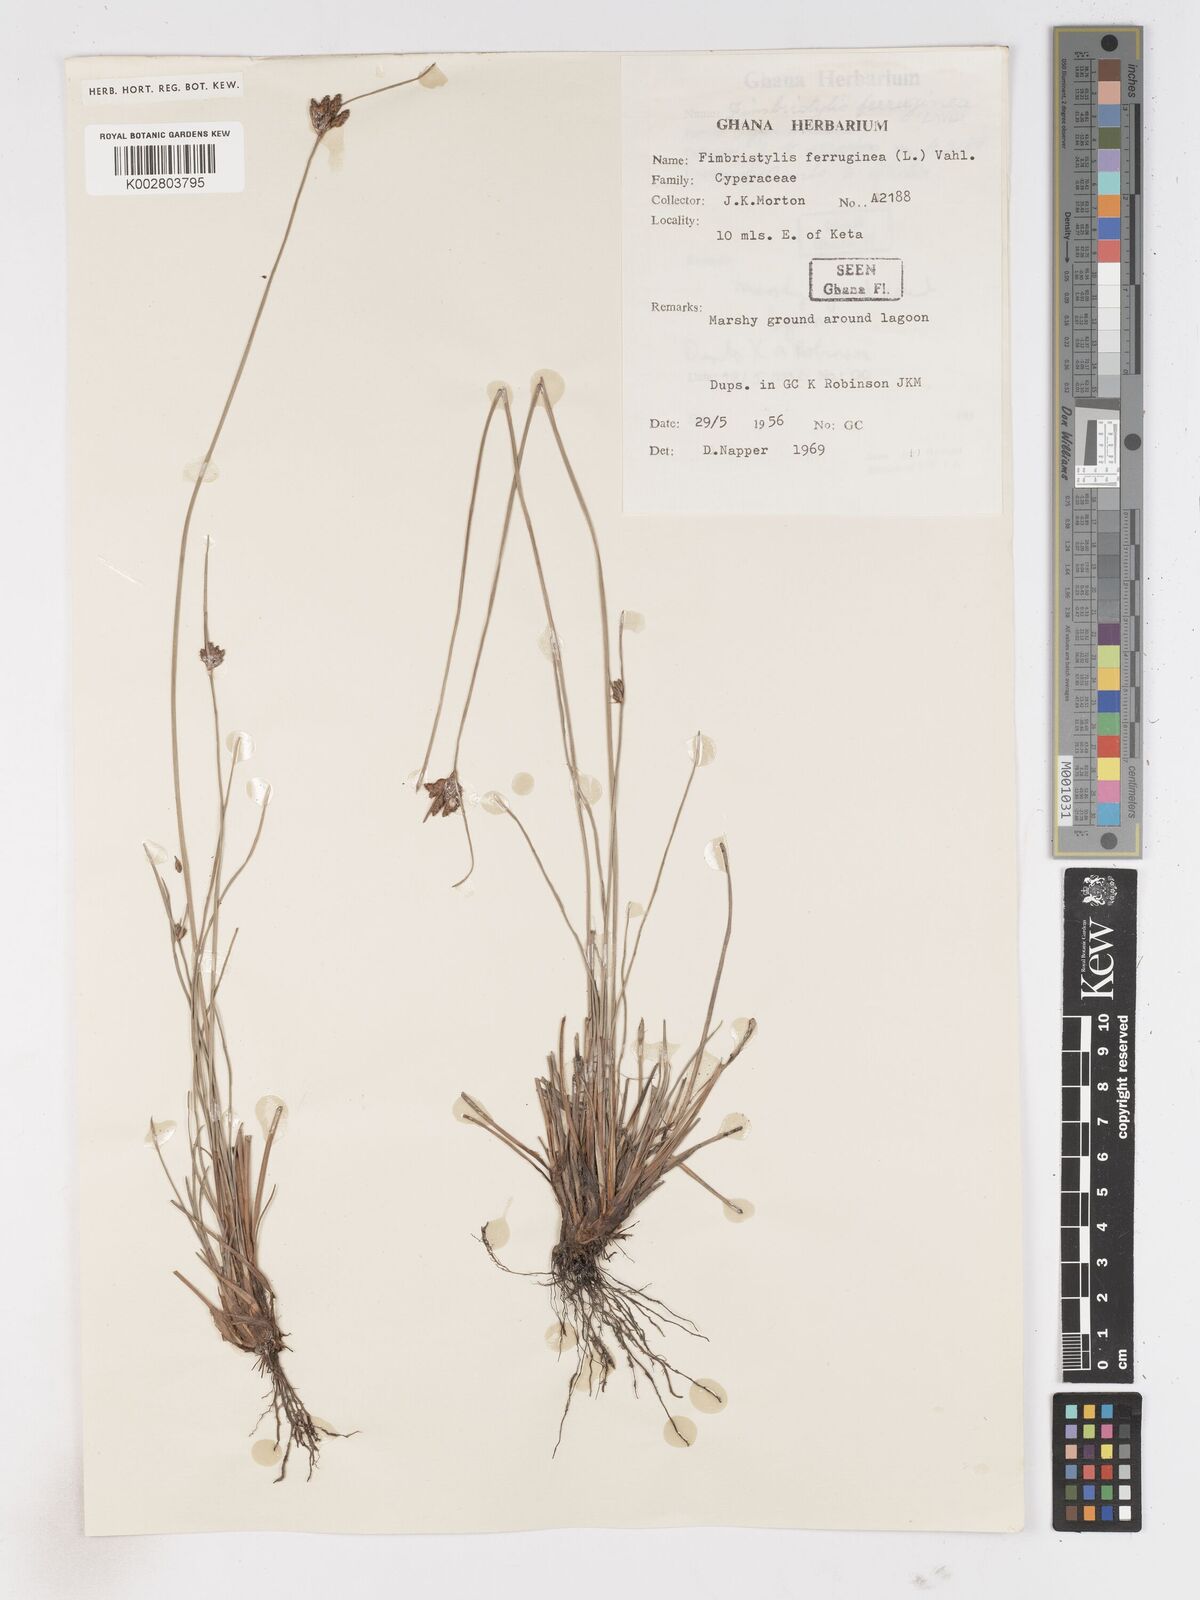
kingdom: Plantae
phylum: Tracheophyta
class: Liliopsida
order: Poales
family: Cyperaceae
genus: Fimbristylis
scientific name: Fimbristylis ferruginea
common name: West indian fimbry
